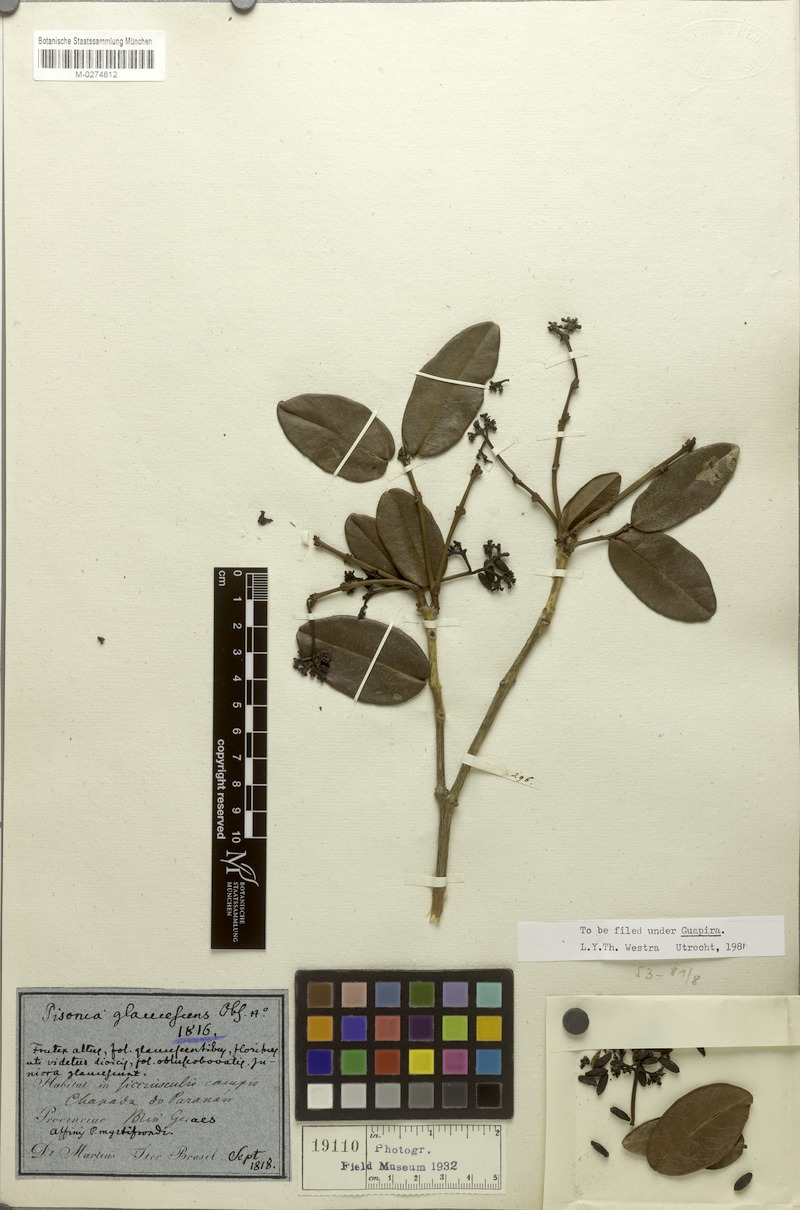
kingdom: Plantae
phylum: Tracheophyta
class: Magnoliopsida
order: Caryophyllales
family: Nyctaginaceae
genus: Guapira
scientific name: Guapira campestris
